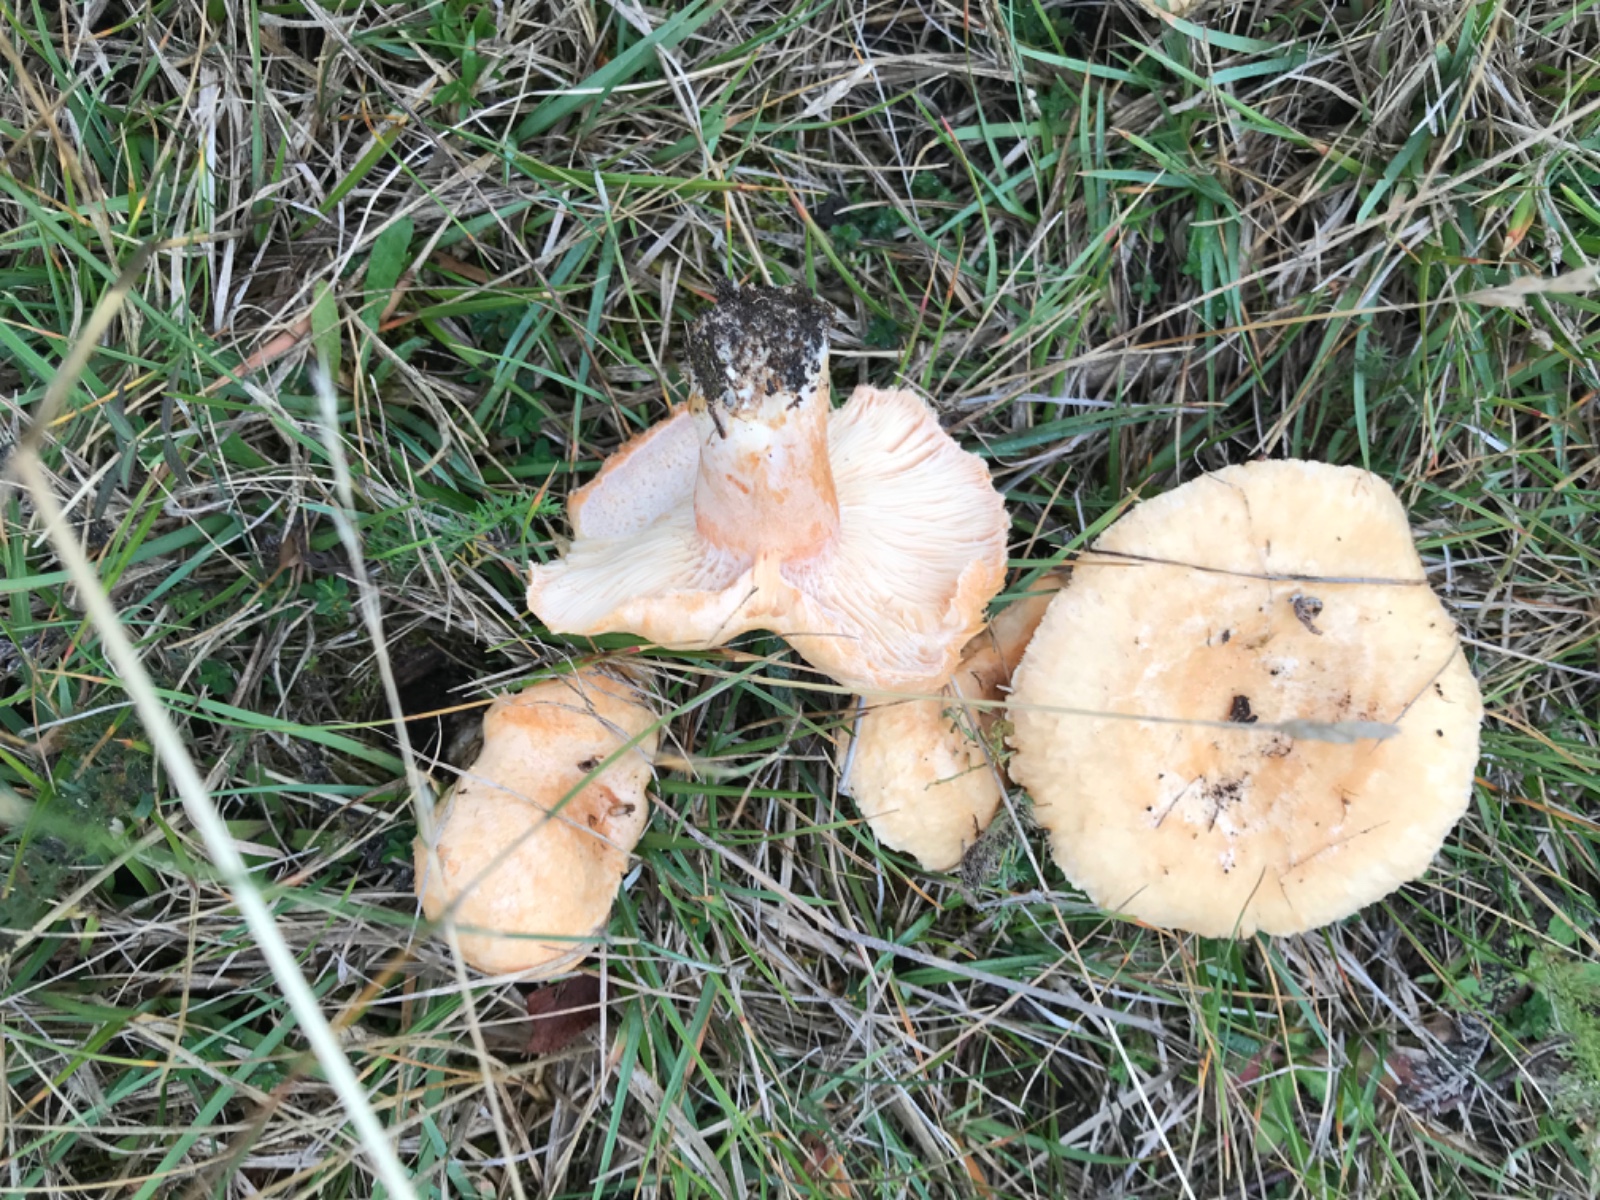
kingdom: Fungi
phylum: Basidiomycota
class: Agaricomycetes
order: Russulales
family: Russulaceae
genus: Lactarius
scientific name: Lactarius pubescens
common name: dunet mælkehat
